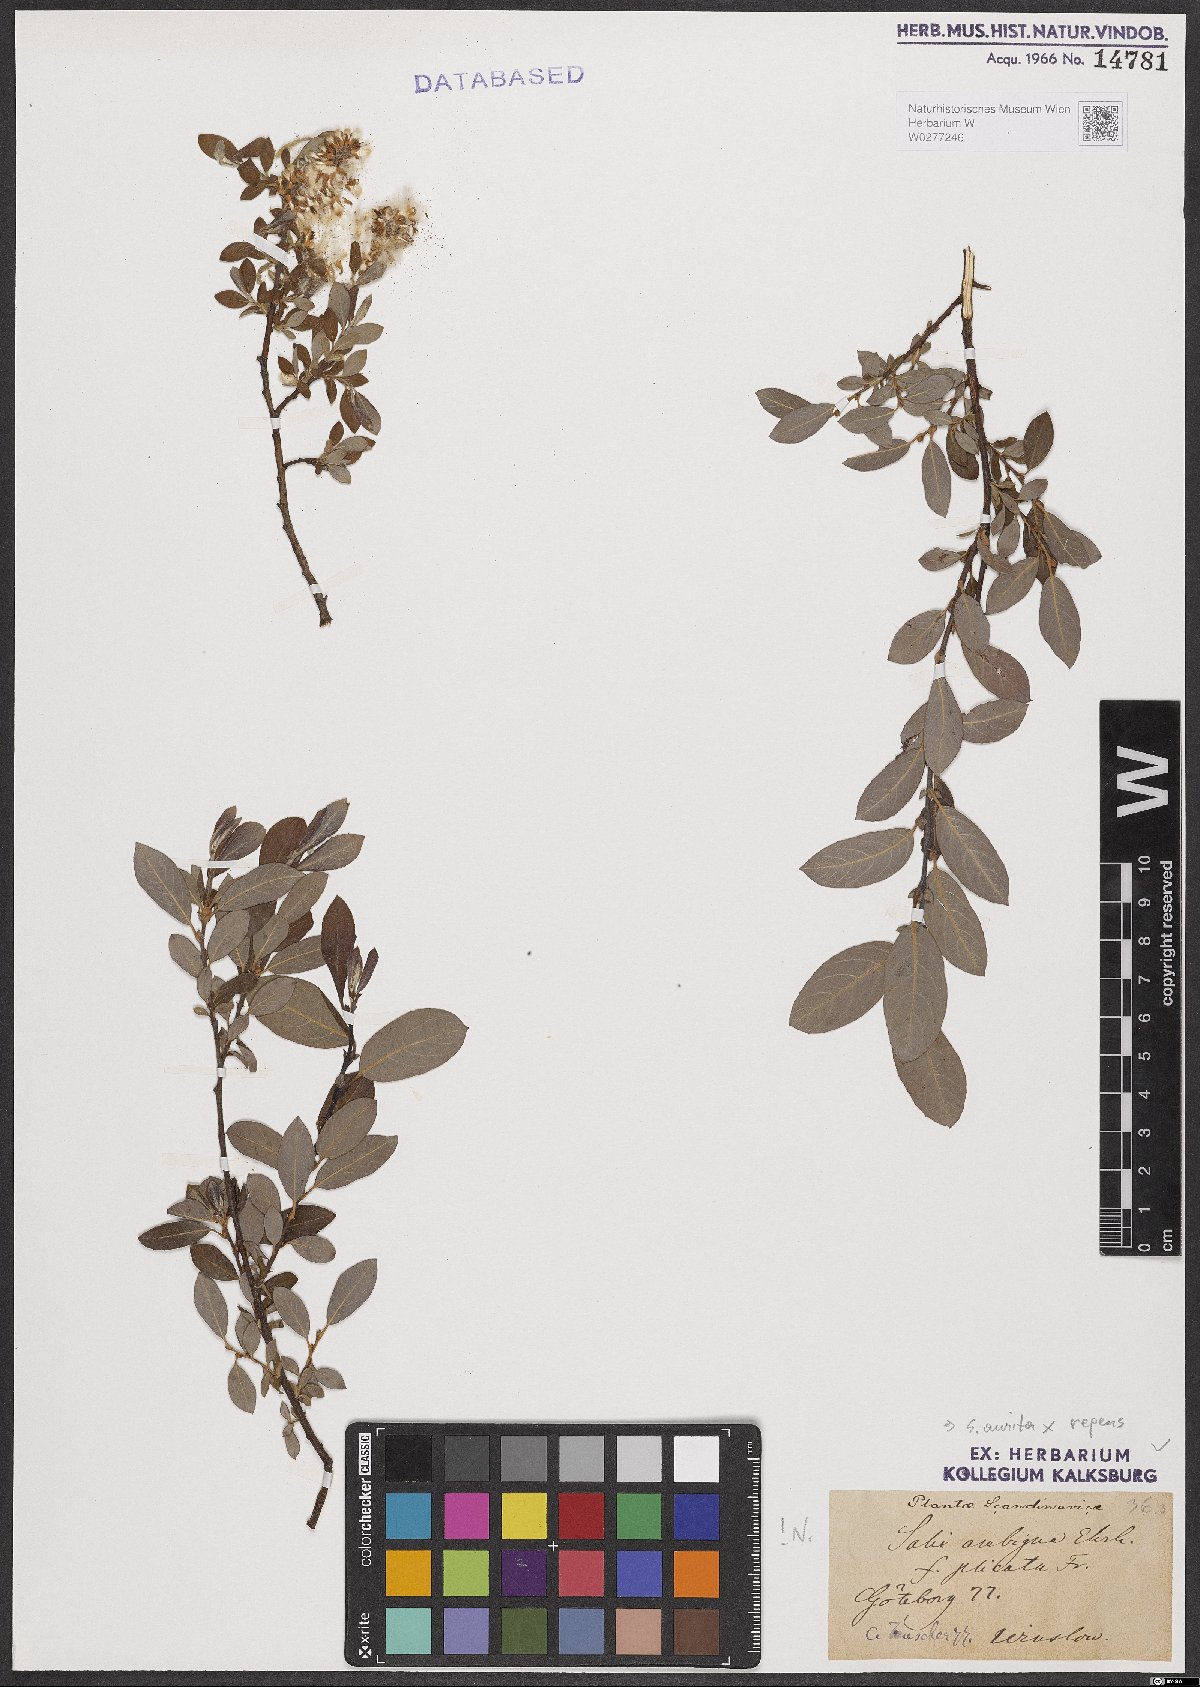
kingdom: Plantae
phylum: Tracheophyta
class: Magnoliopsida
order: Malpighiales
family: Salicaceae
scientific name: Salicaceae
